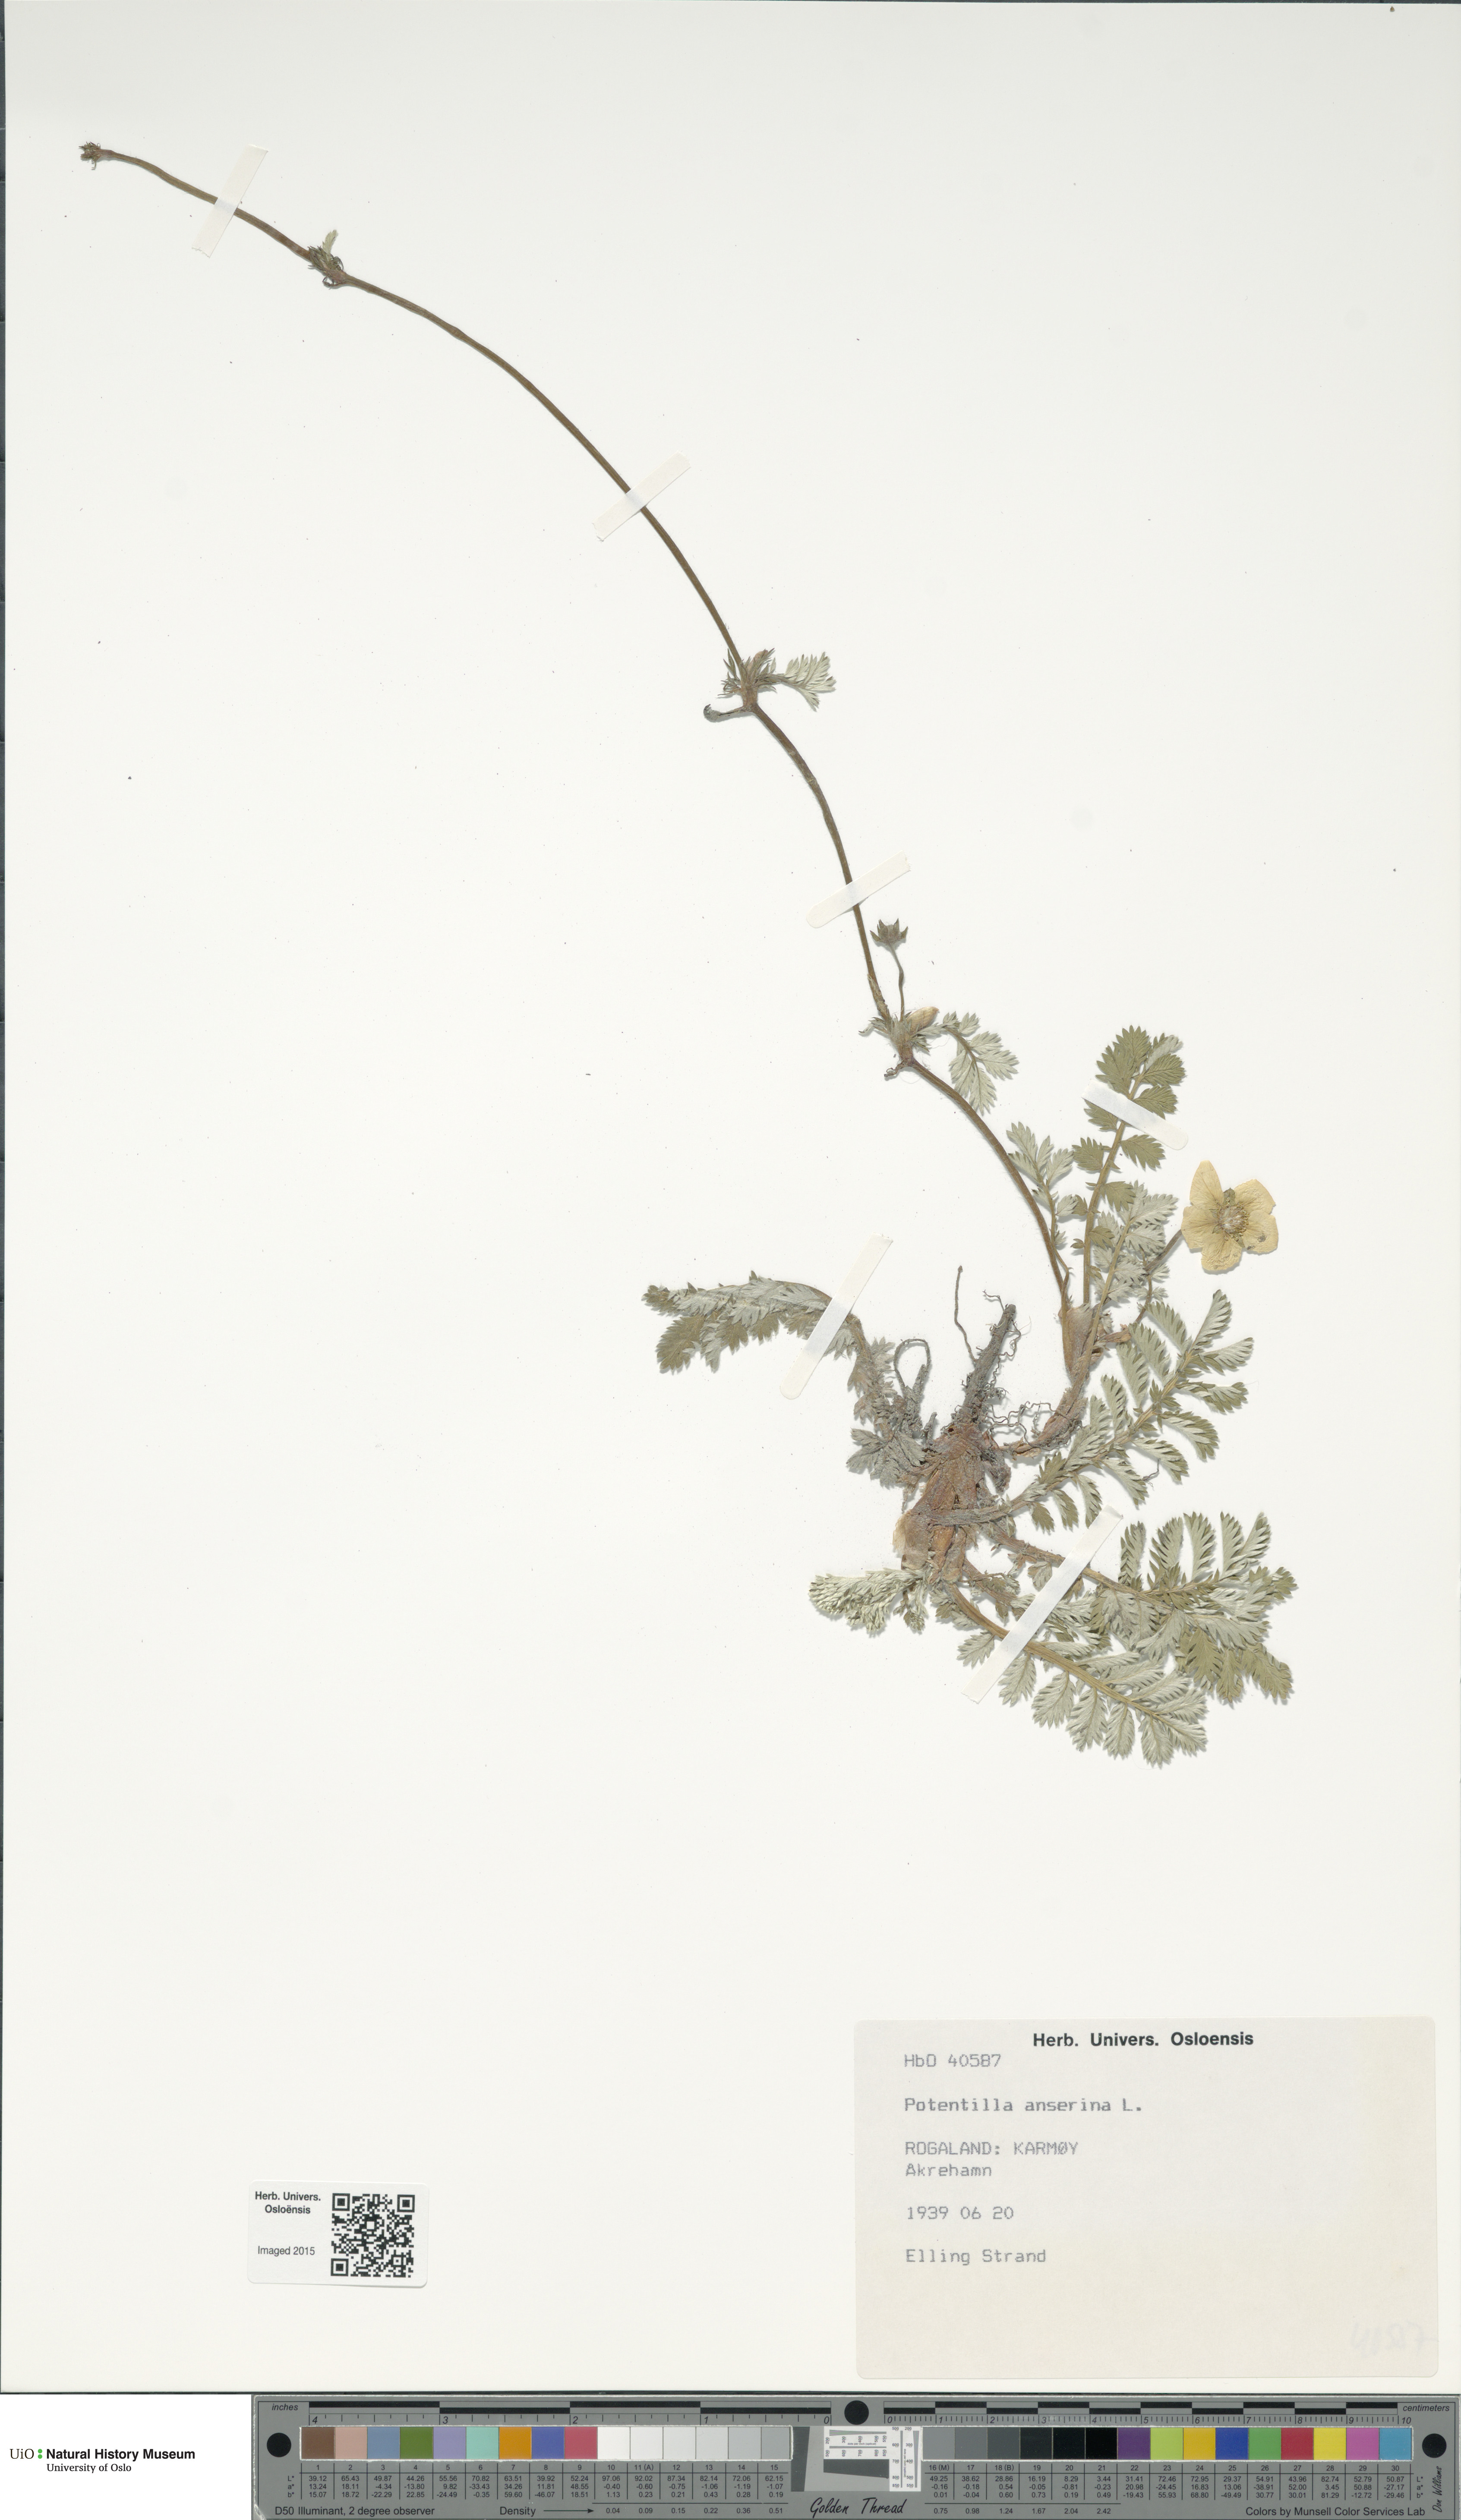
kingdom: Plantae
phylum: Tracheophyta
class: Magnoliopsida
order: Rosales
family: Rosaceae
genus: Argentina
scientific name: Argentina anserina
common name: Common silverweed
